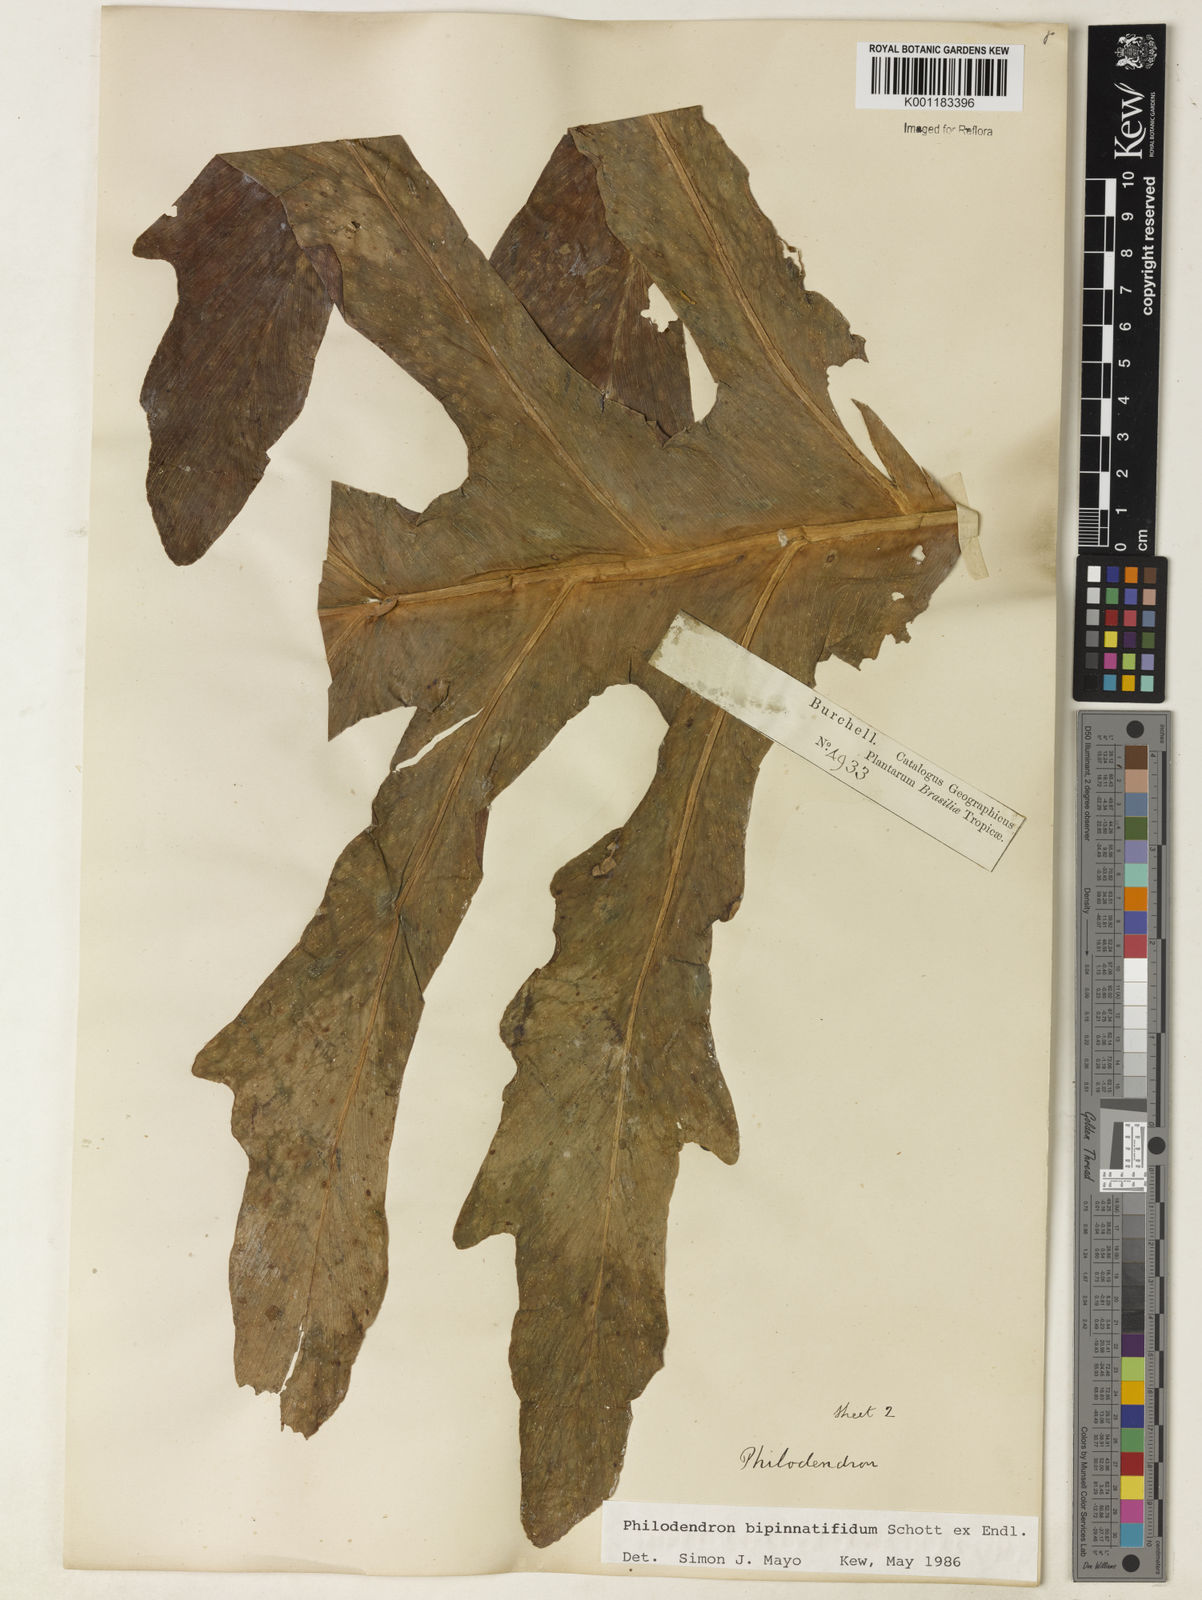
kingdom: Plantae
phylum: Tracheophyta
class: Liliopsida
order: Alismatales
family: Araceae
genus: Philodendron
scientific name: Philodendron
